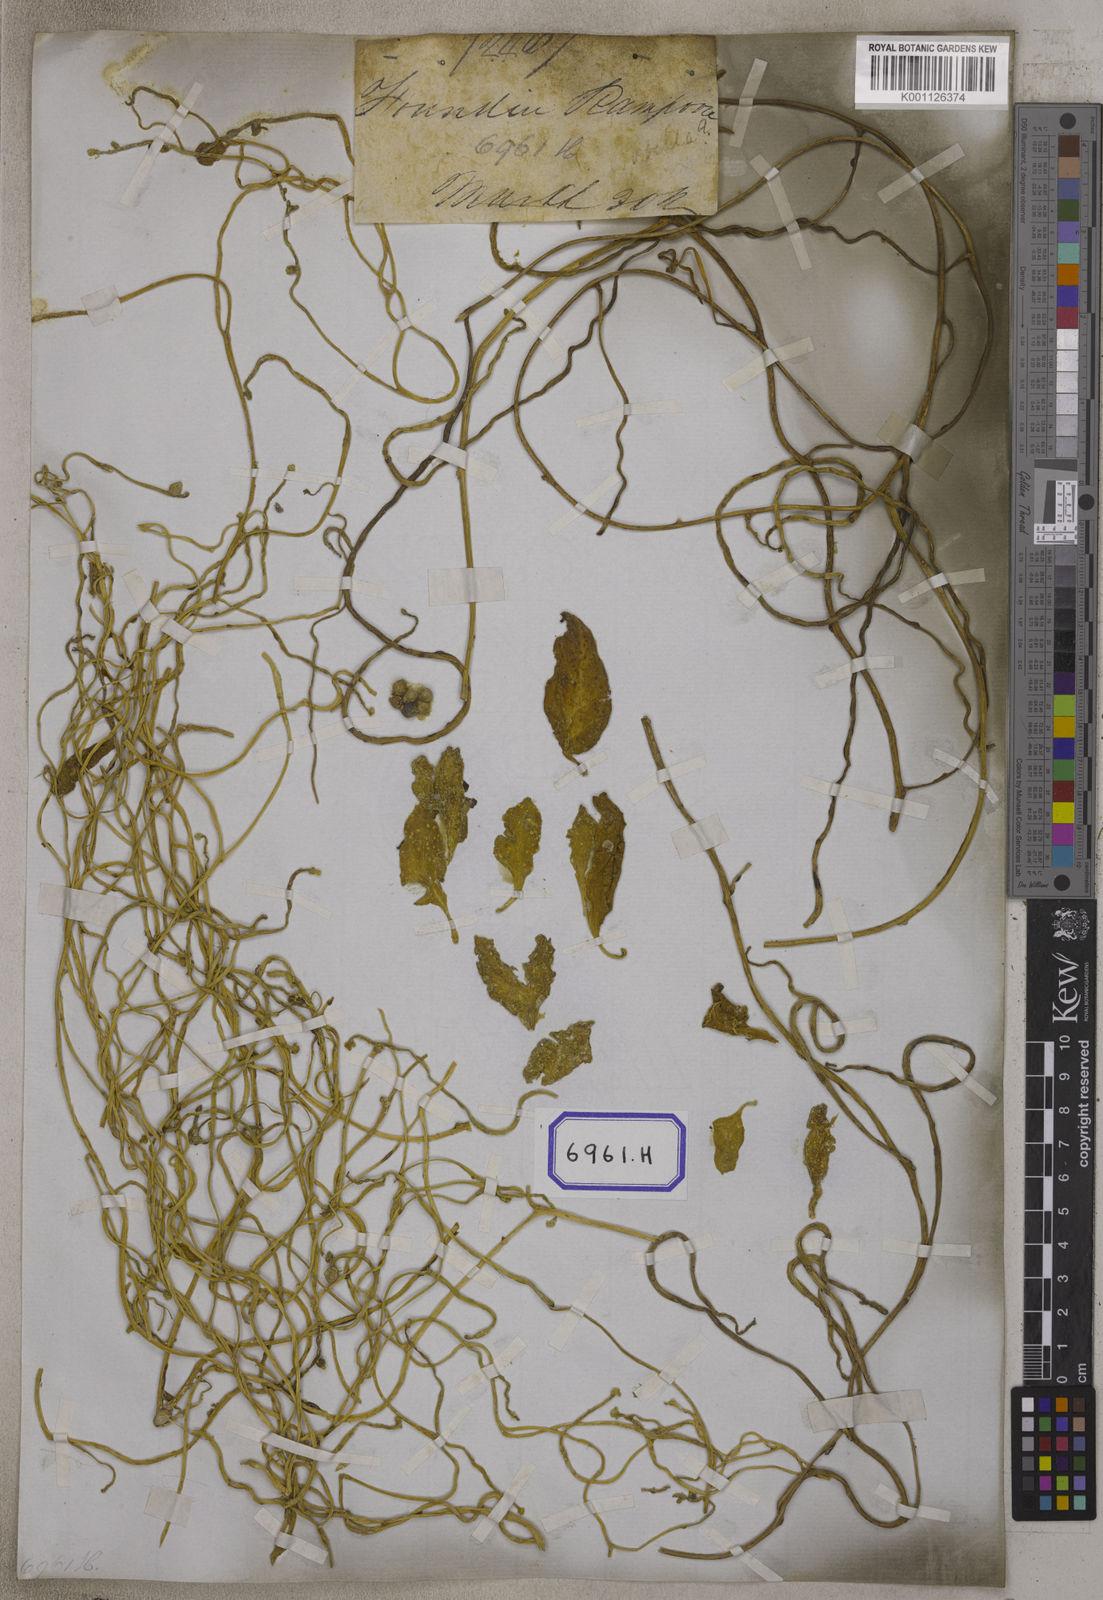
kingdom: Plantae
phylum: Tracheophyta
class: Magnoliopsida
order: Caryophyllales
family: Basellaceae
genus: Basella
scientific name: Basella alba
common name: Indian spinach
